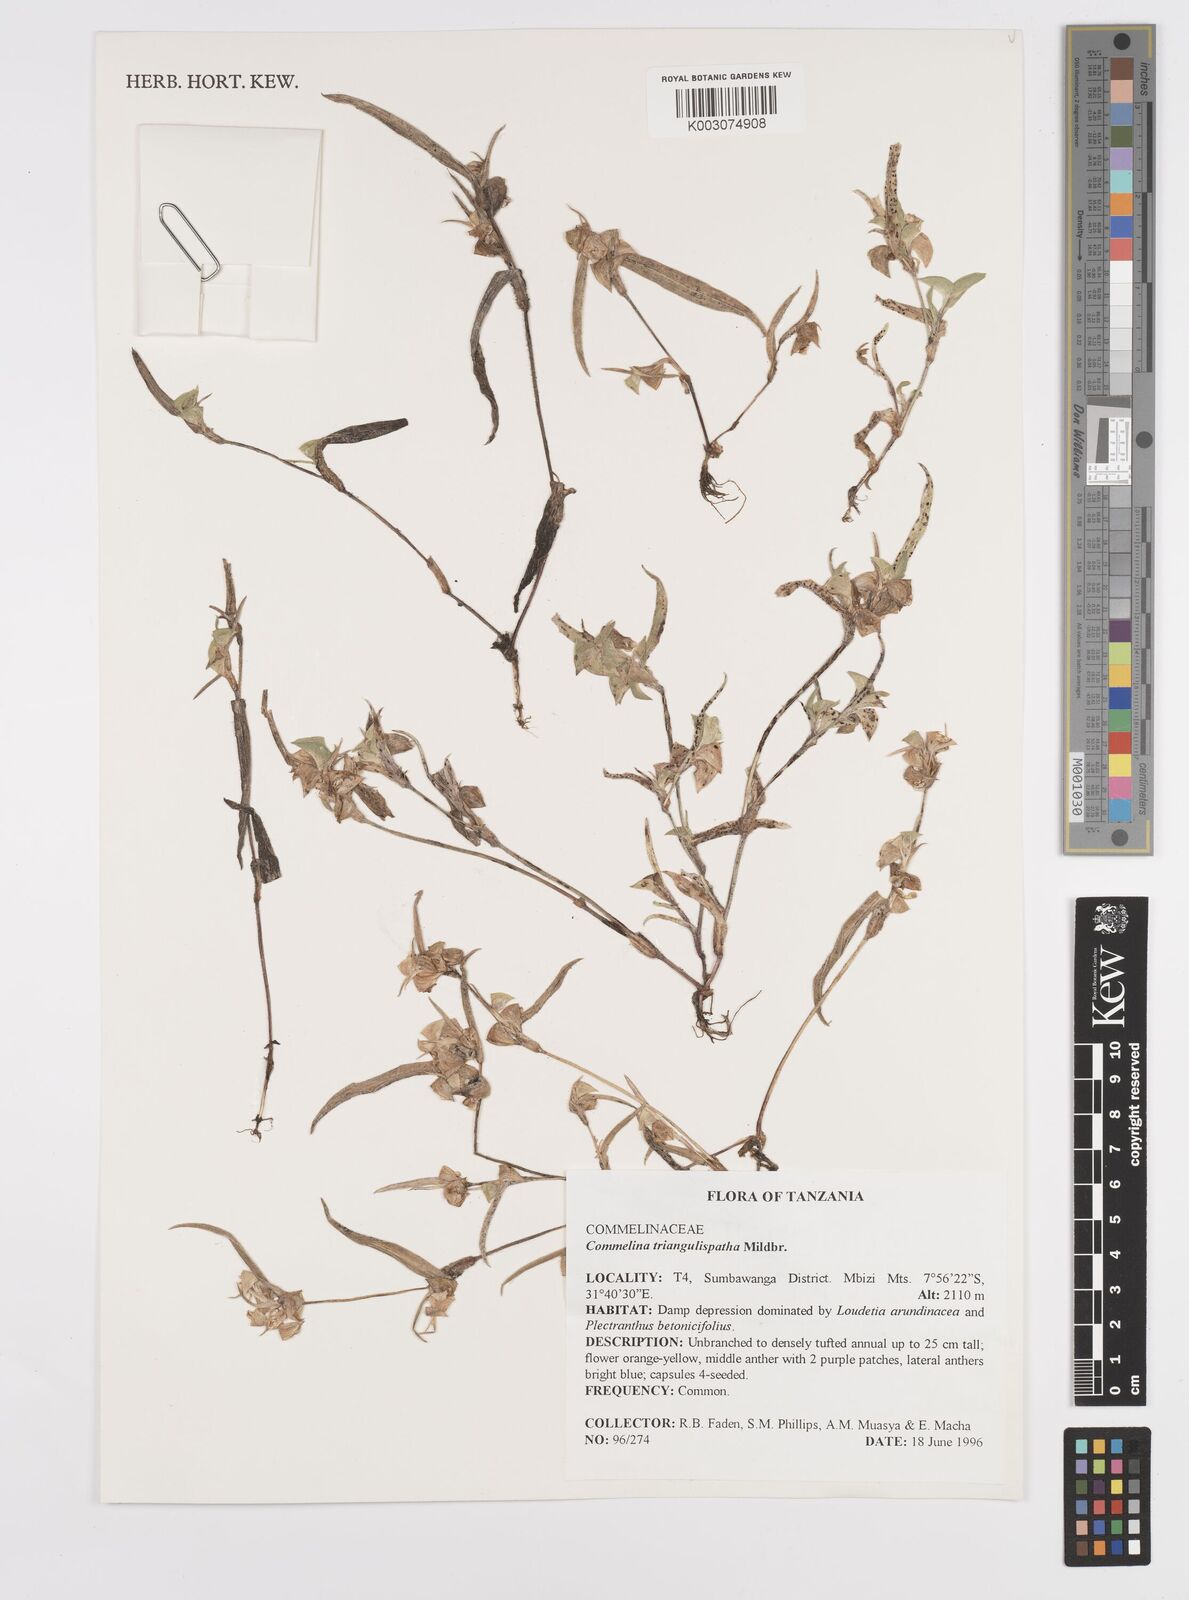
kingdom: Plantae
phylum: Tracheophyta
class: Liliopsida
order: Commelinales
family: Commelinaceae
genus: Commelina
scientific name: Commelina triangulispatha
